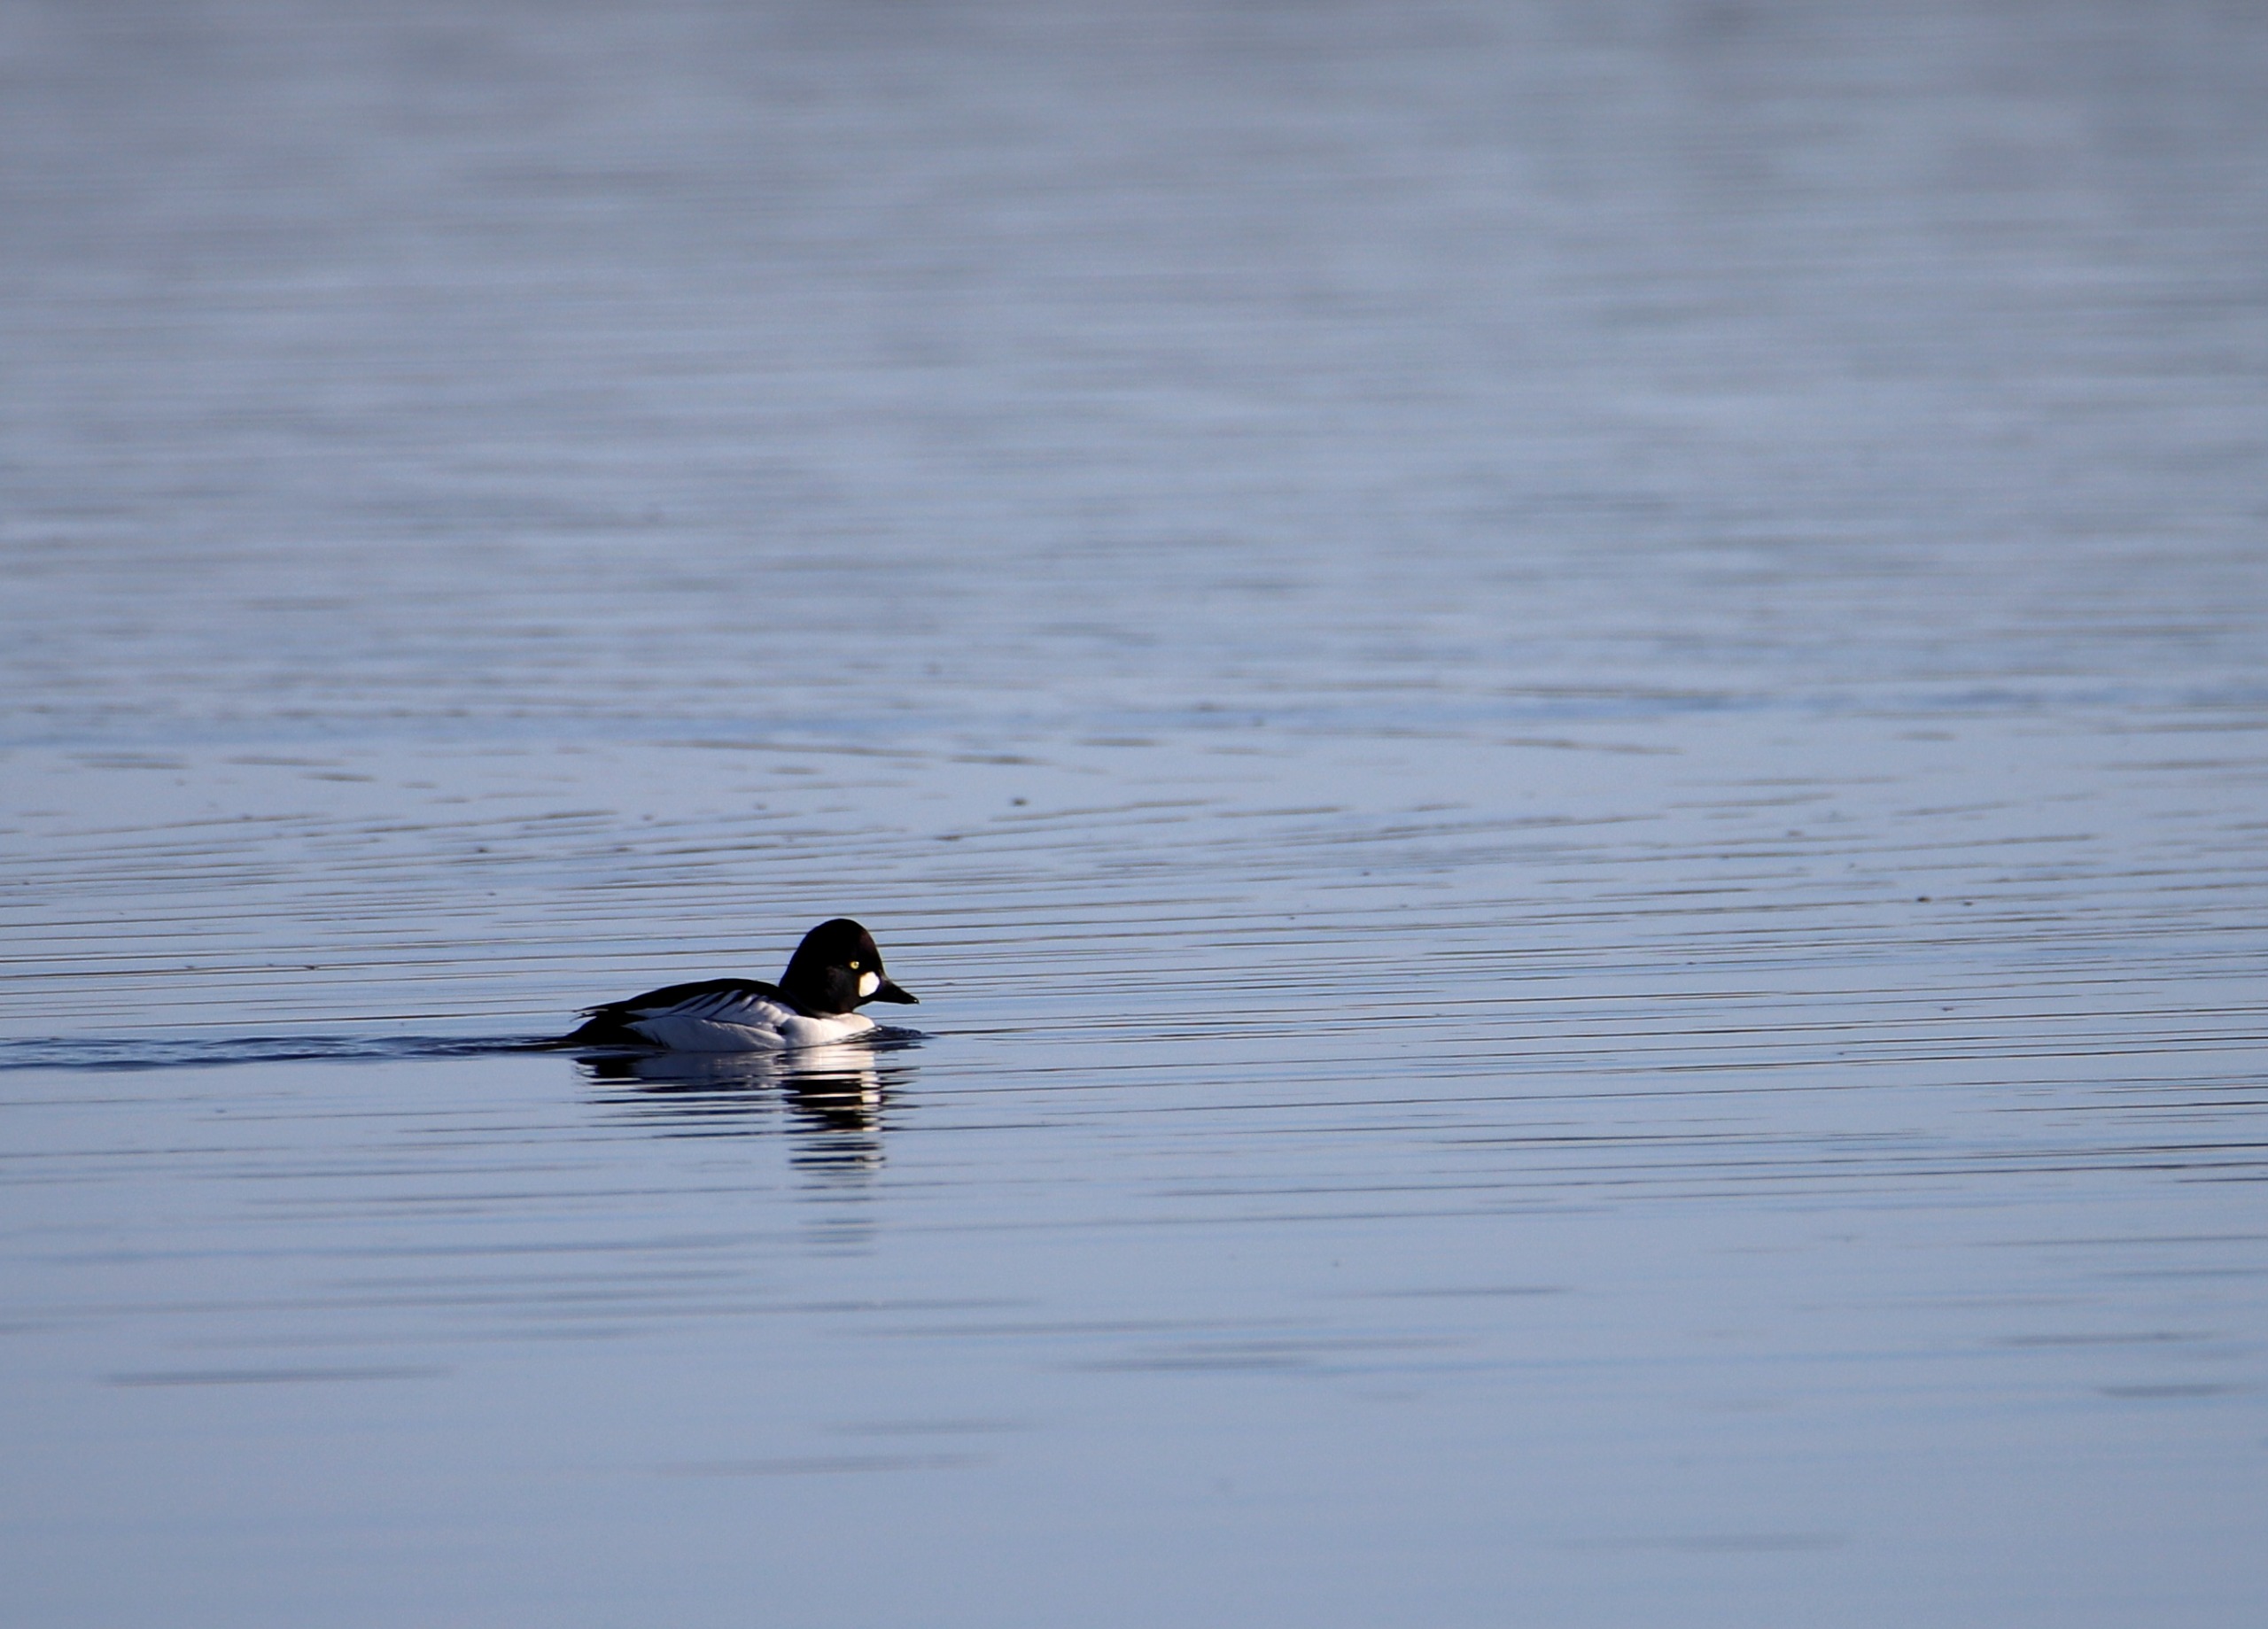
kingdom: Animalia
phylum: Chordata
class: Aves
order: Anseriformes
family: Anatidae
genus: Bucephala
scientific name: Bucephala clangula
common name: Hvinand
